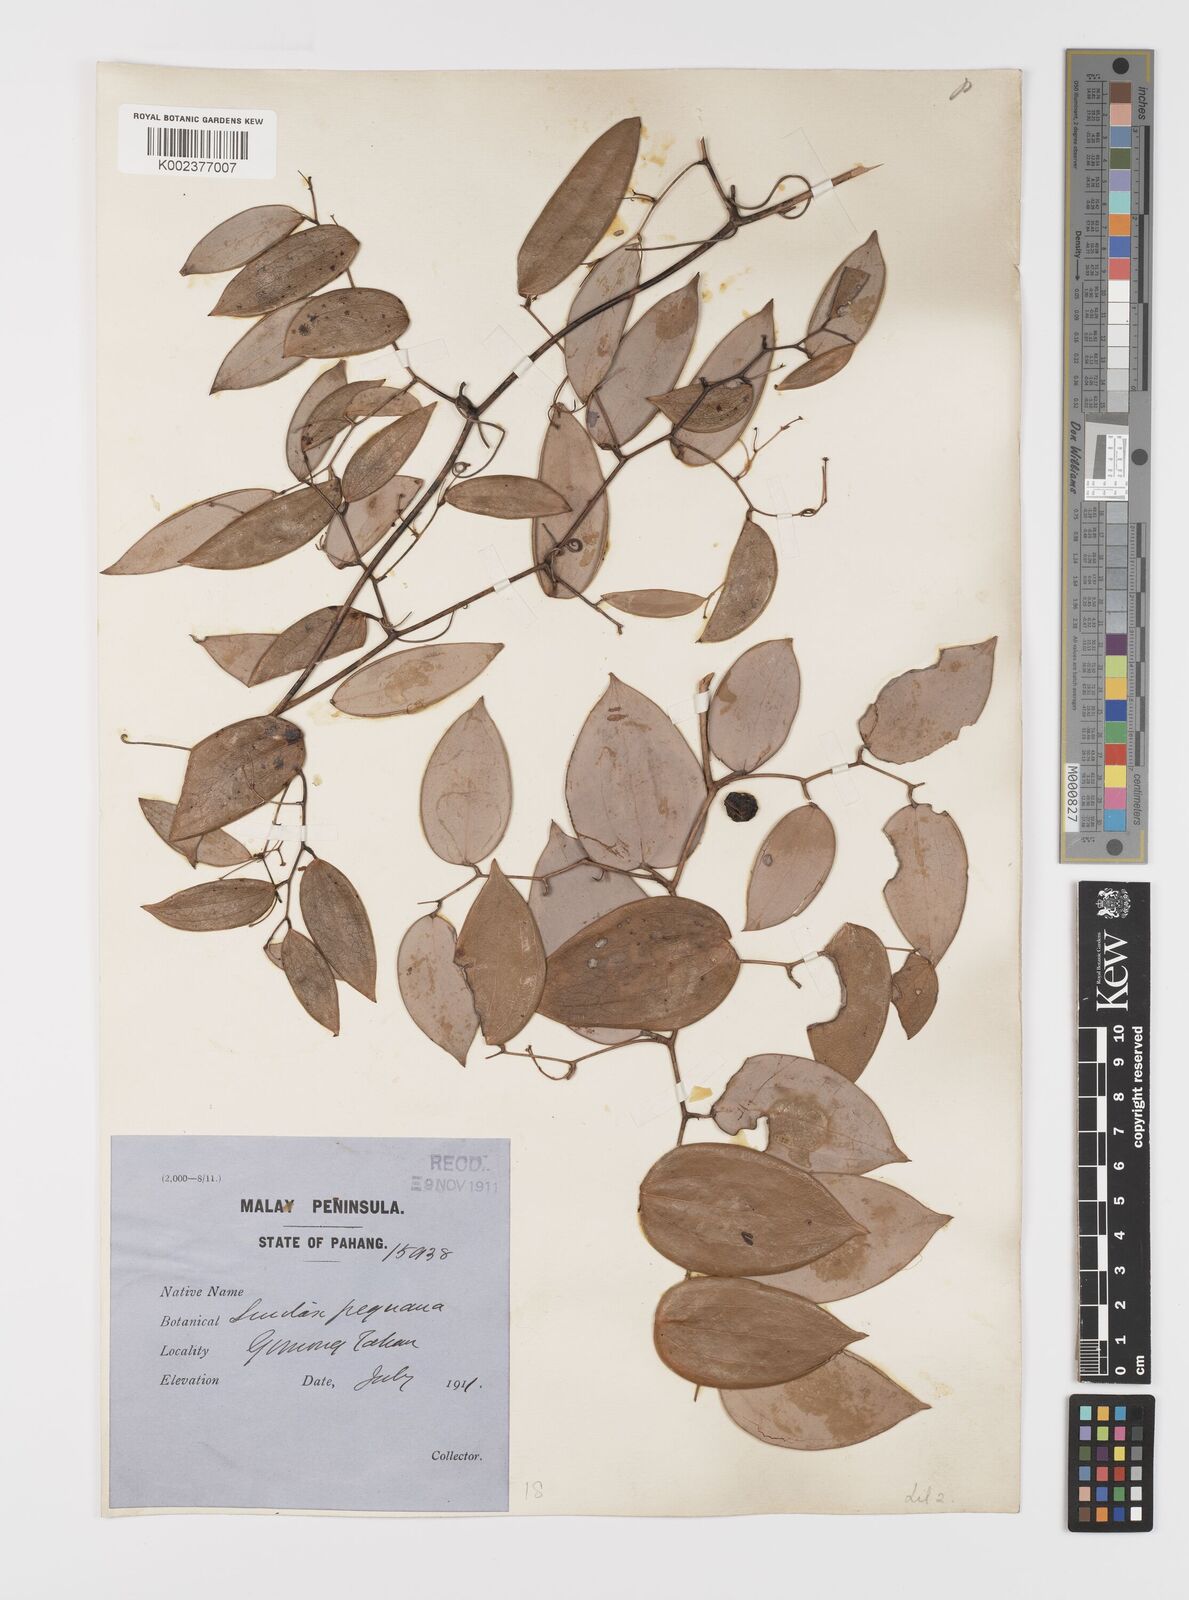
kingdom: Plantae
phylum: Tracheophyta
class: Liliopsida
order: Liliales
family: Smilacaceae
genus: Smilax
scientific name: Smilax myosotiflora
